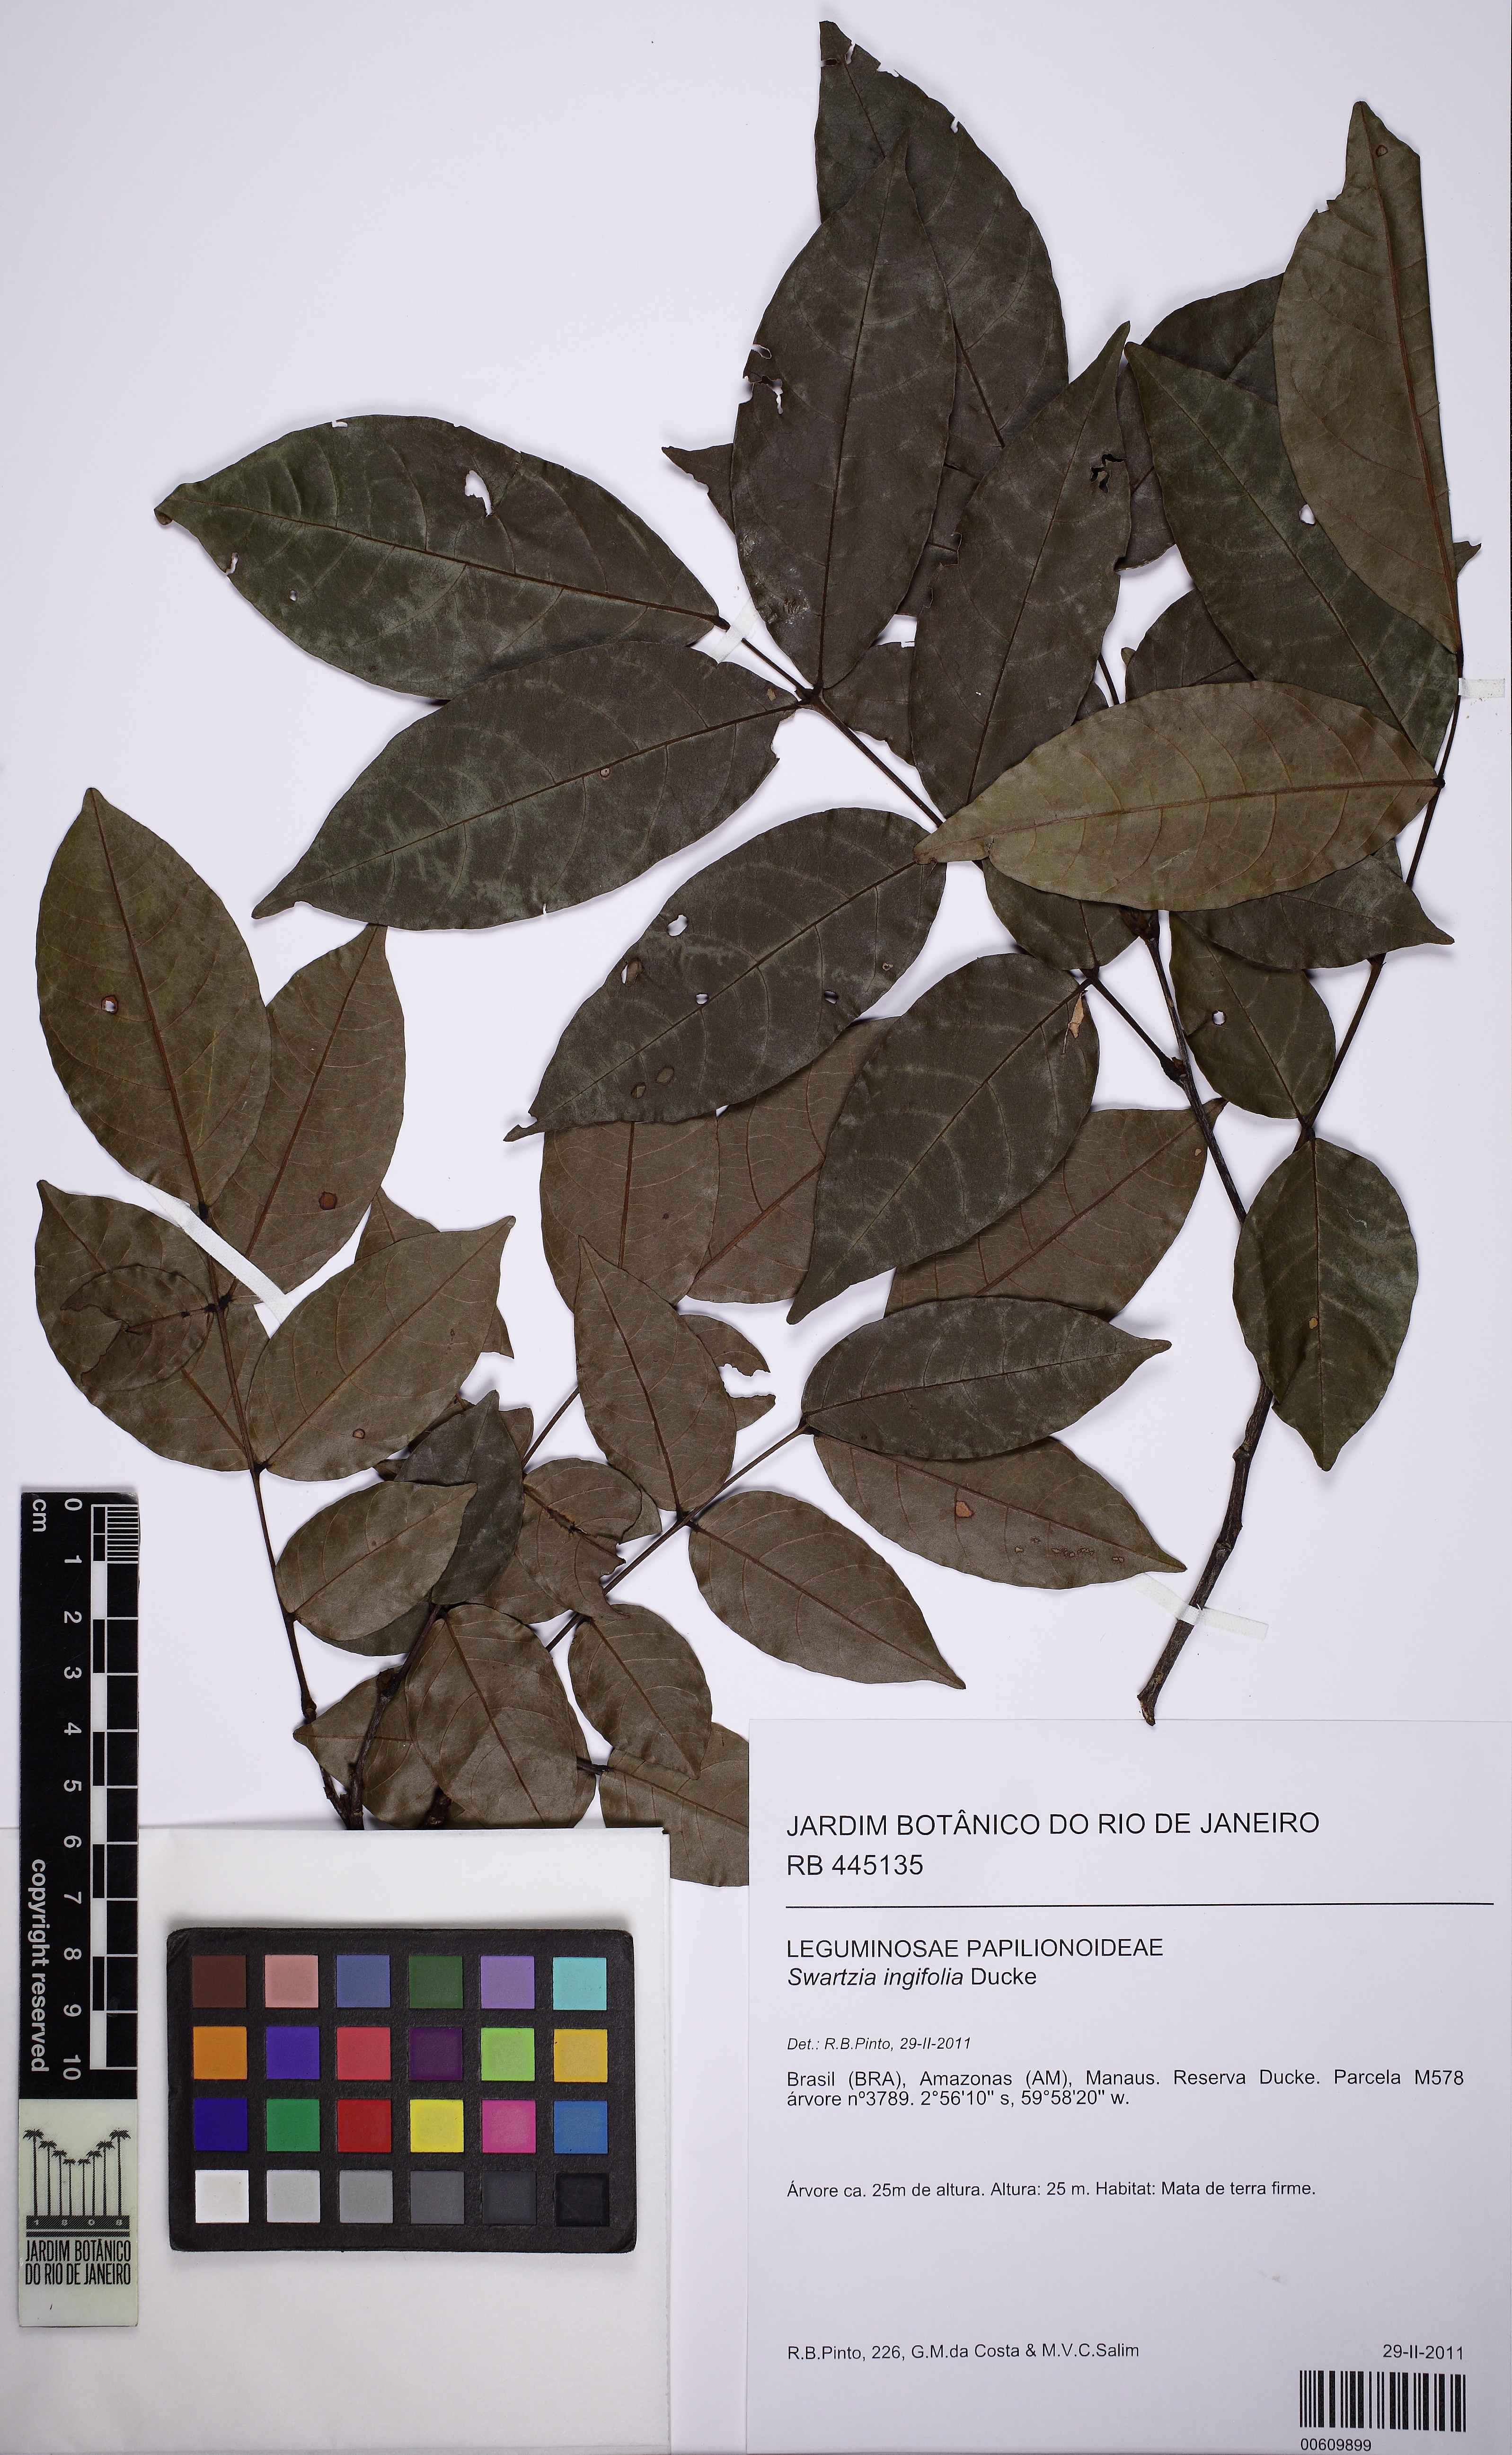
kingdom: Plantae
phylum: Tracheophyta
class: Magnoliopsida
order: Fabales
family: Fabaceae
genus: Swartzia
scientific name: Swartzia ingifolia
